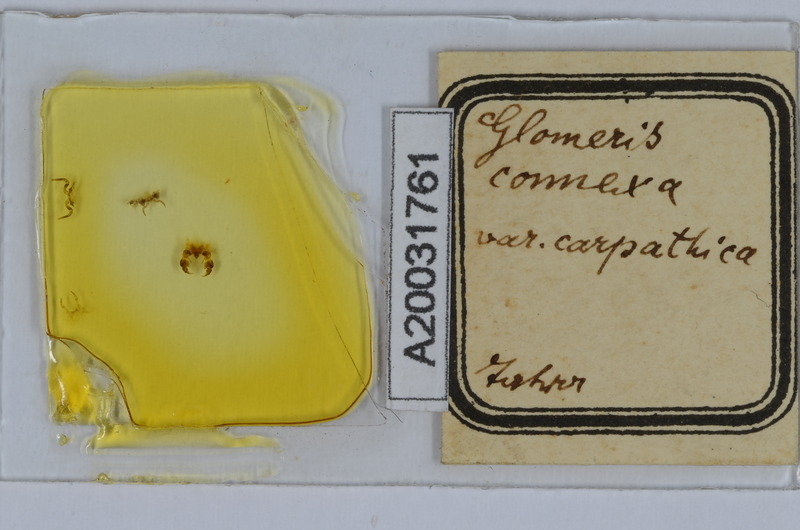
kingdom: Animalia
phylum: Arthropoda
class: Diplopoda
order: Glomerida
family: Glomeridae
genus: Glomeris
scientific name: Glomeris connexa
